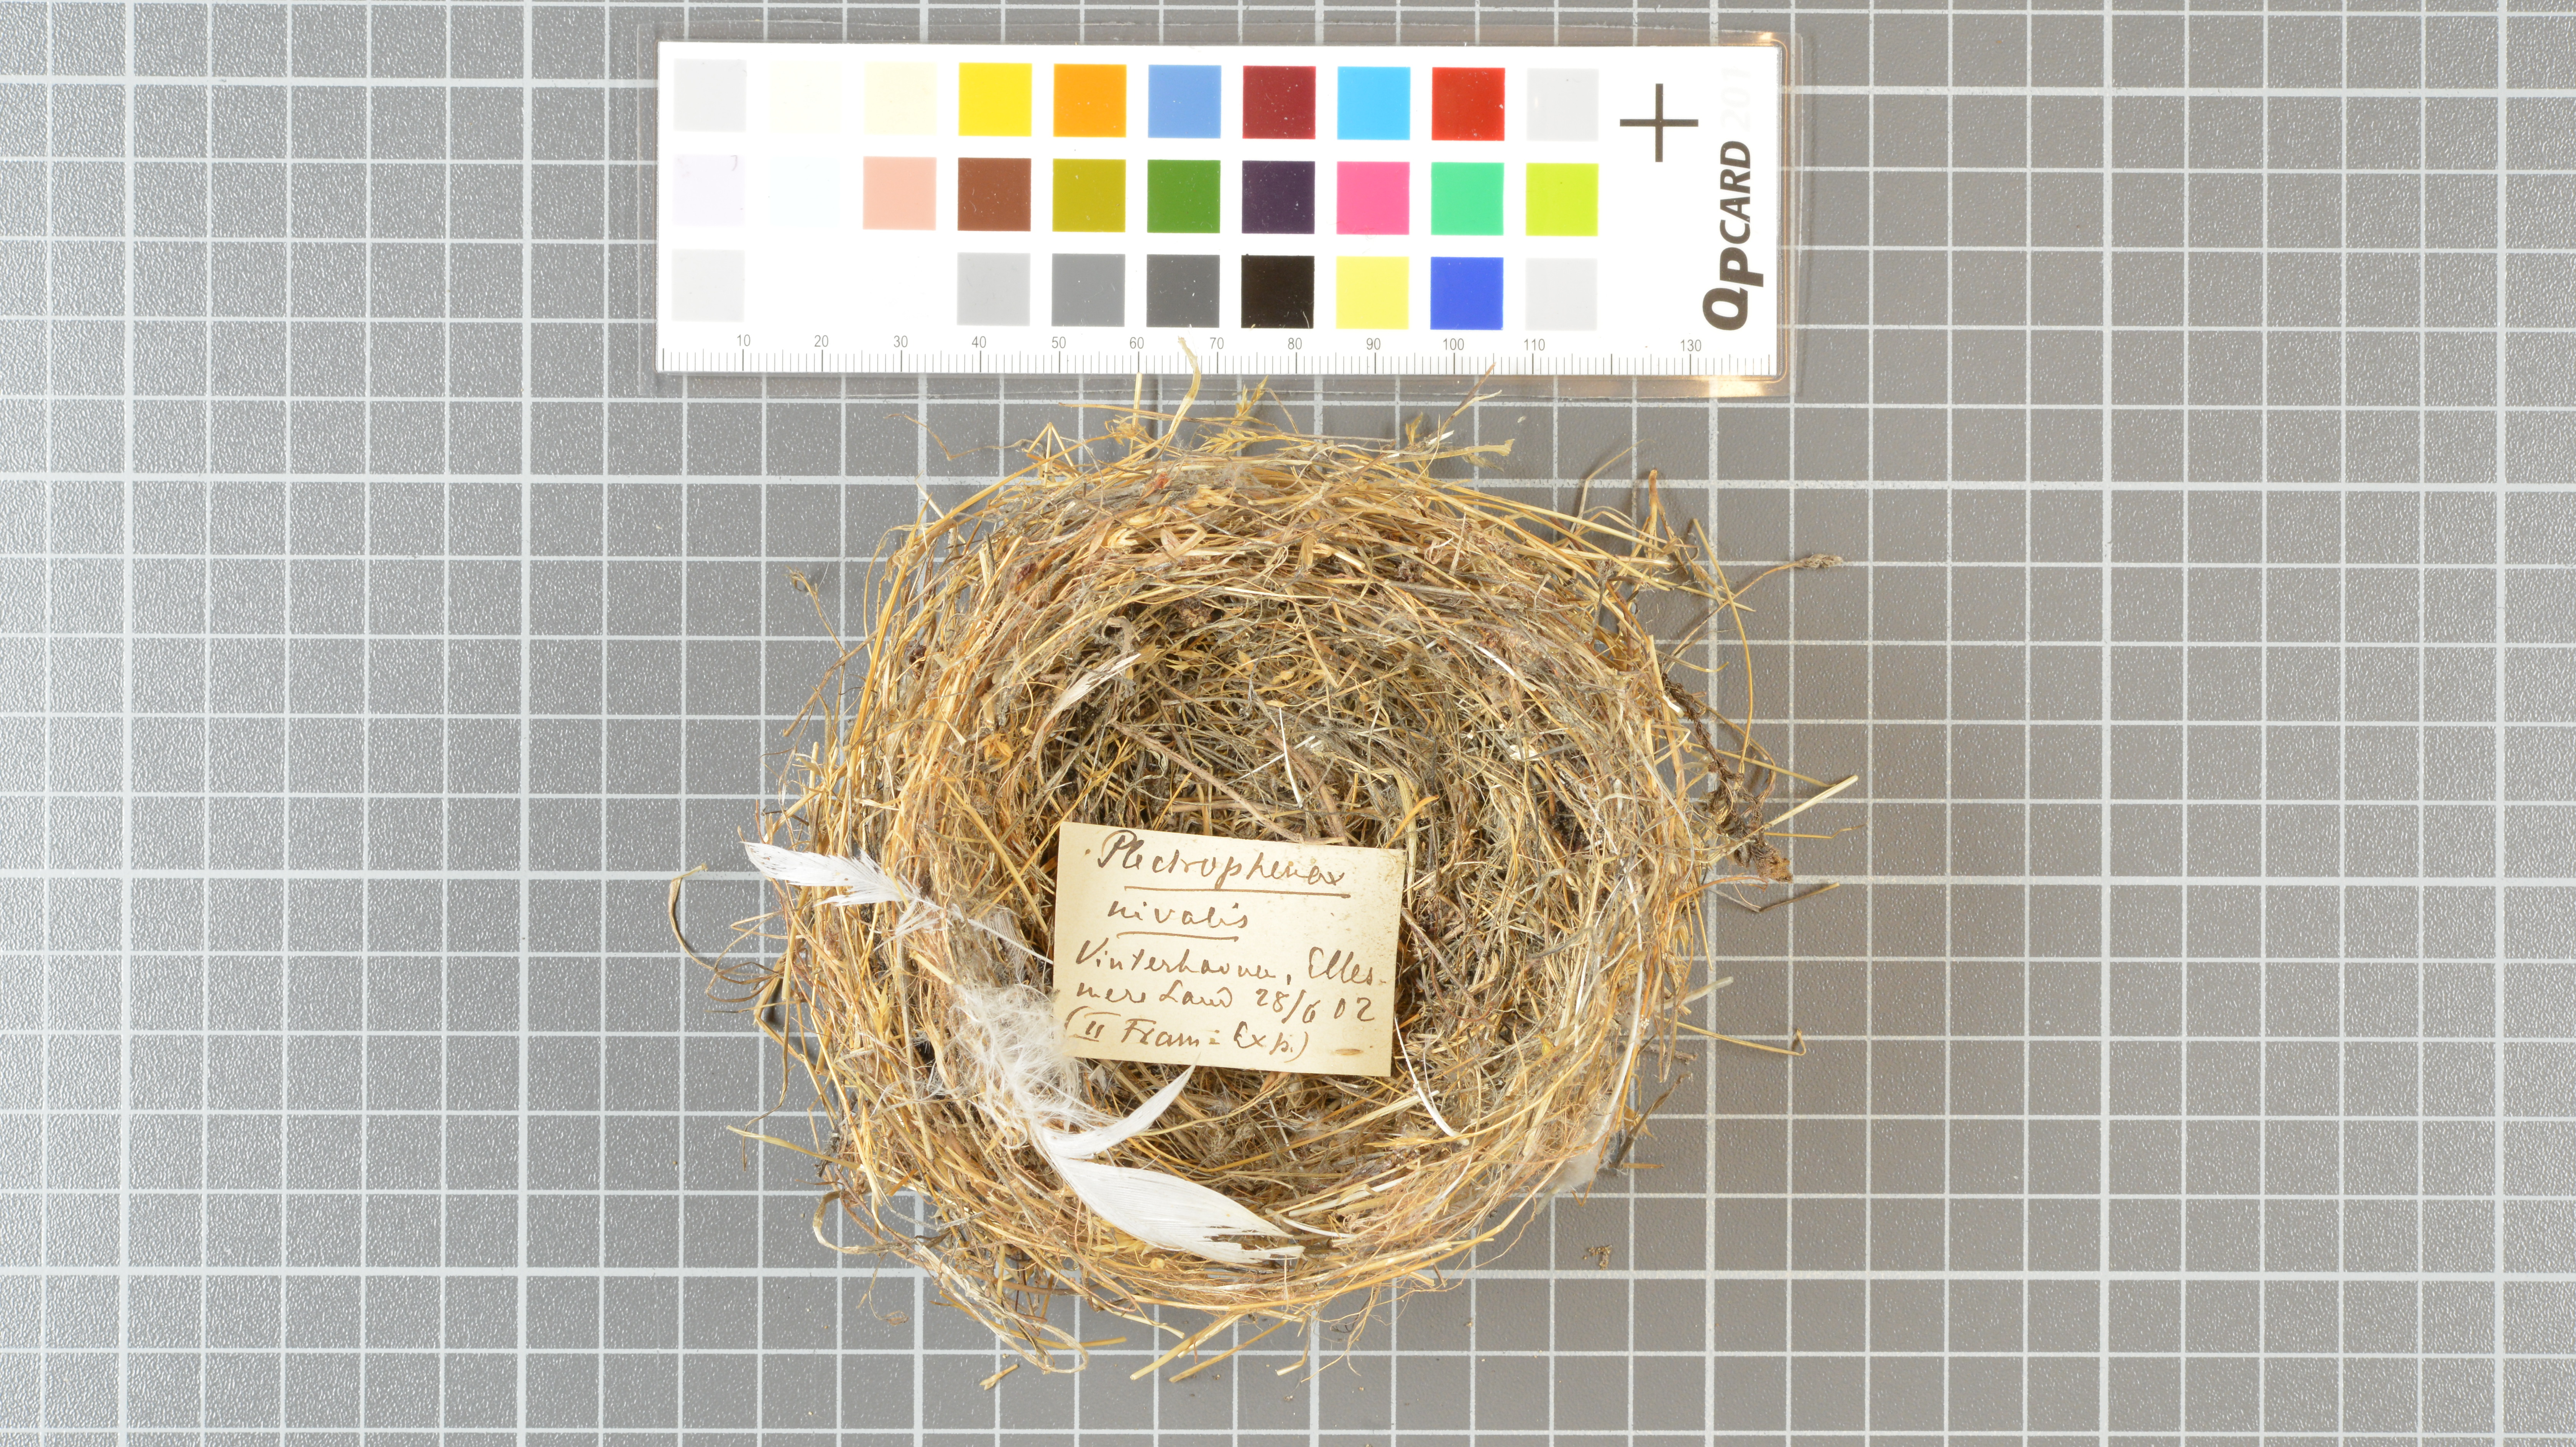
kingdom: Animalia
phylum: Chordata
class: Aves
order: Passeriformes
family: Calcariidae
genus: Plectrophenax
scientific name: Plectrophenax nivalis
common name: Snow bunting
